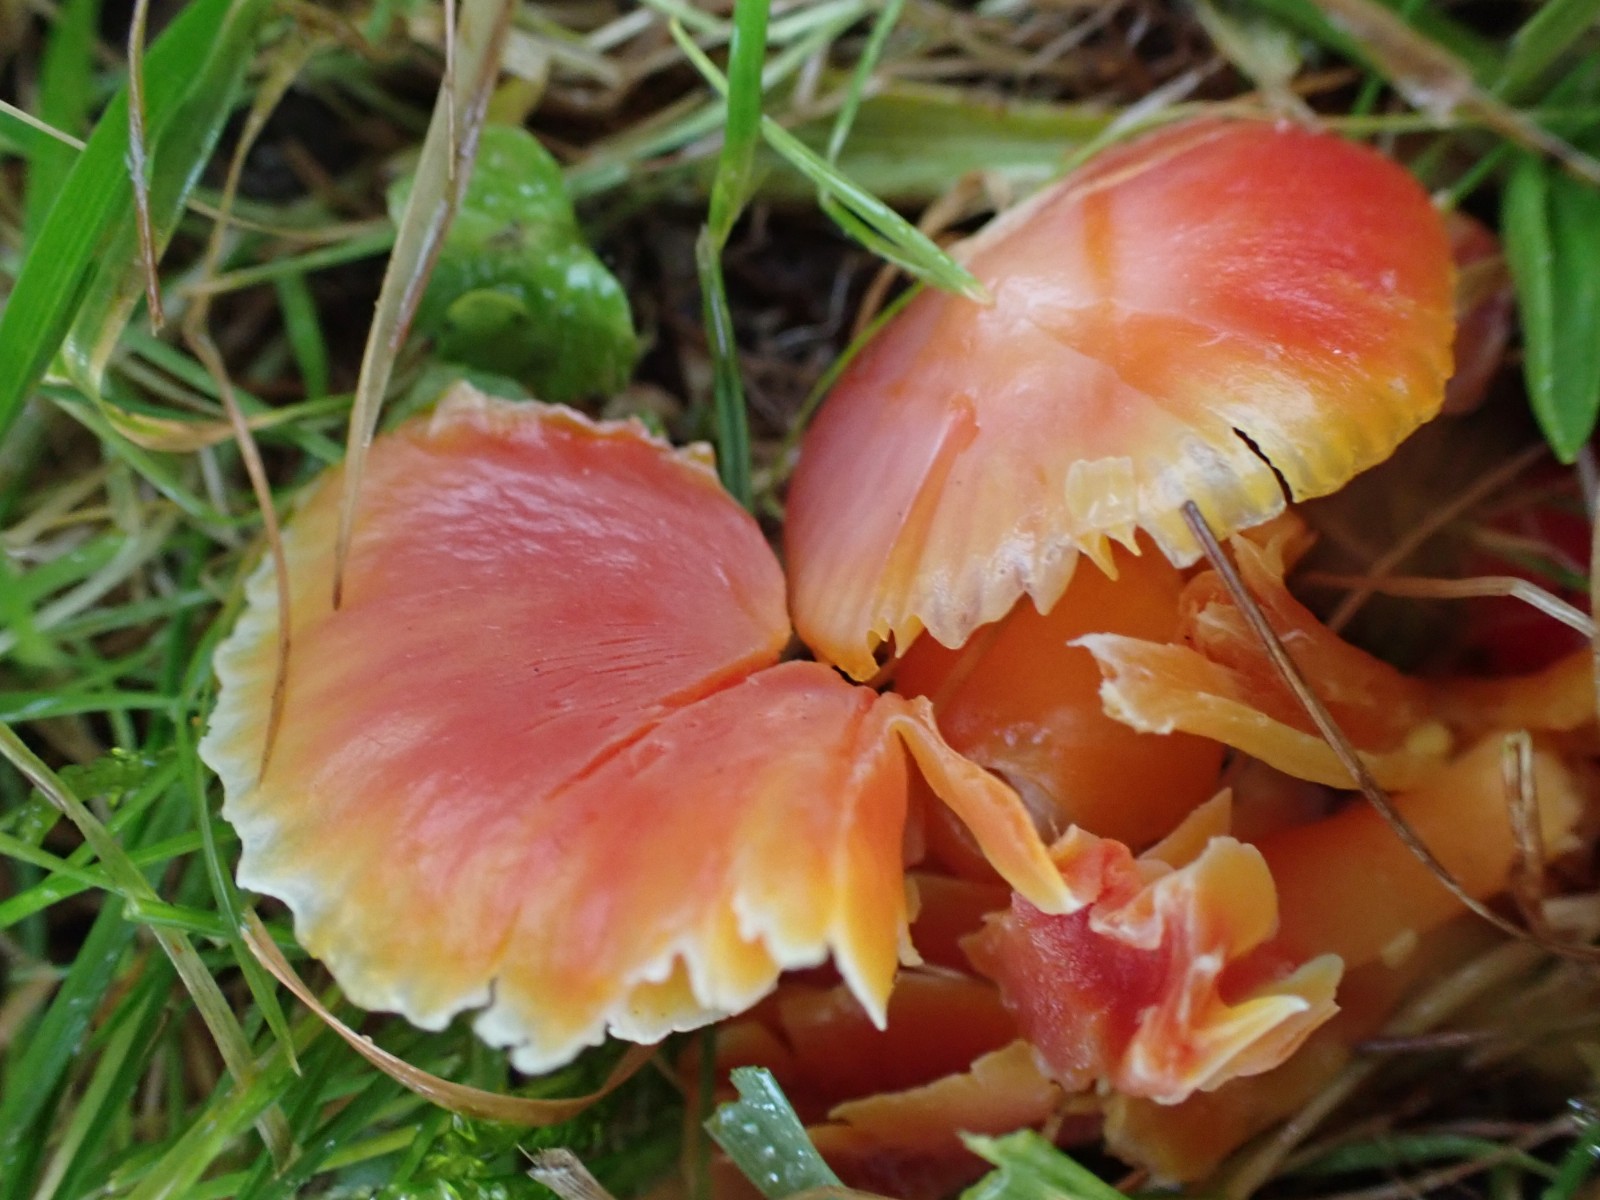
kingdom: Fungi
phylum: Basidiomycota
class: Agaricomycetes
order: Agaricales
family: Hygrophoraceae
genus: Hygrocybe
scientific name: Hygrocybe coccinea
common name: cinnober-vokshat
